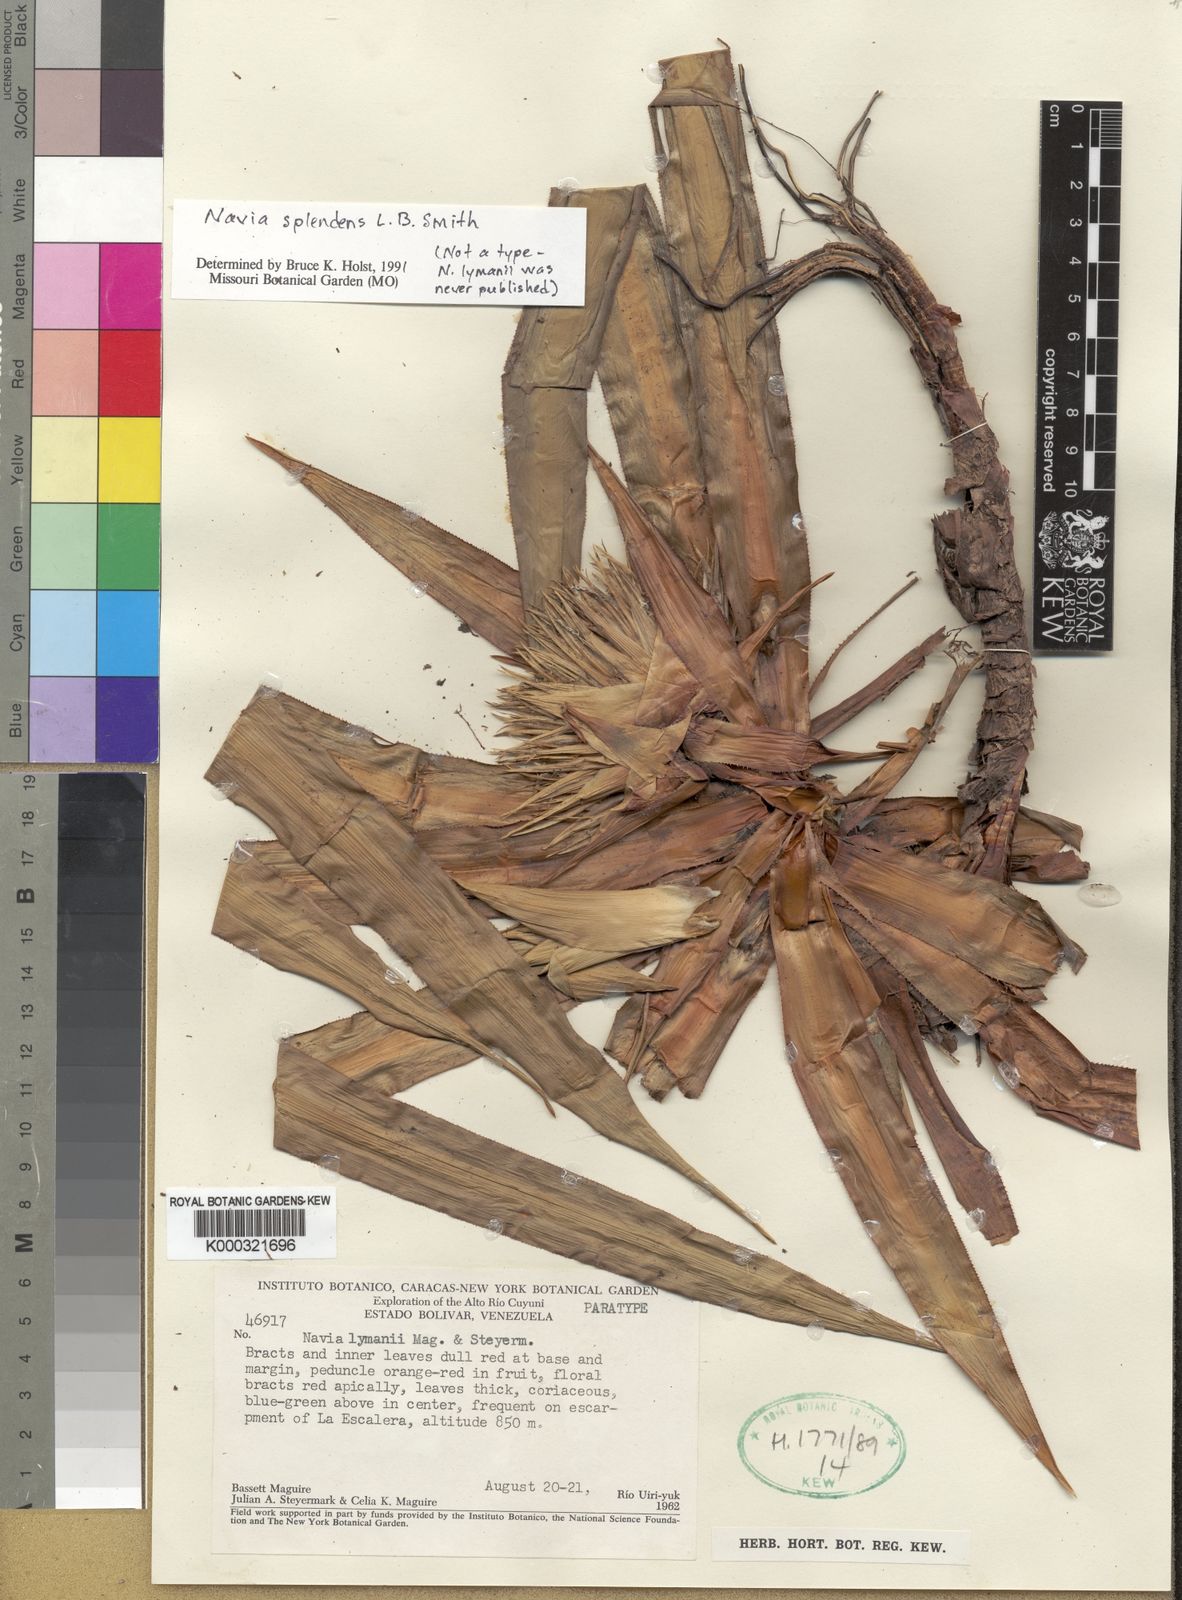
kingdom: Plantae
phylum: Tracheophyta
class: Liliopsida
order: Poales
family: Bromeliaceae
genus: Navia
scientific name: Navia splendens
